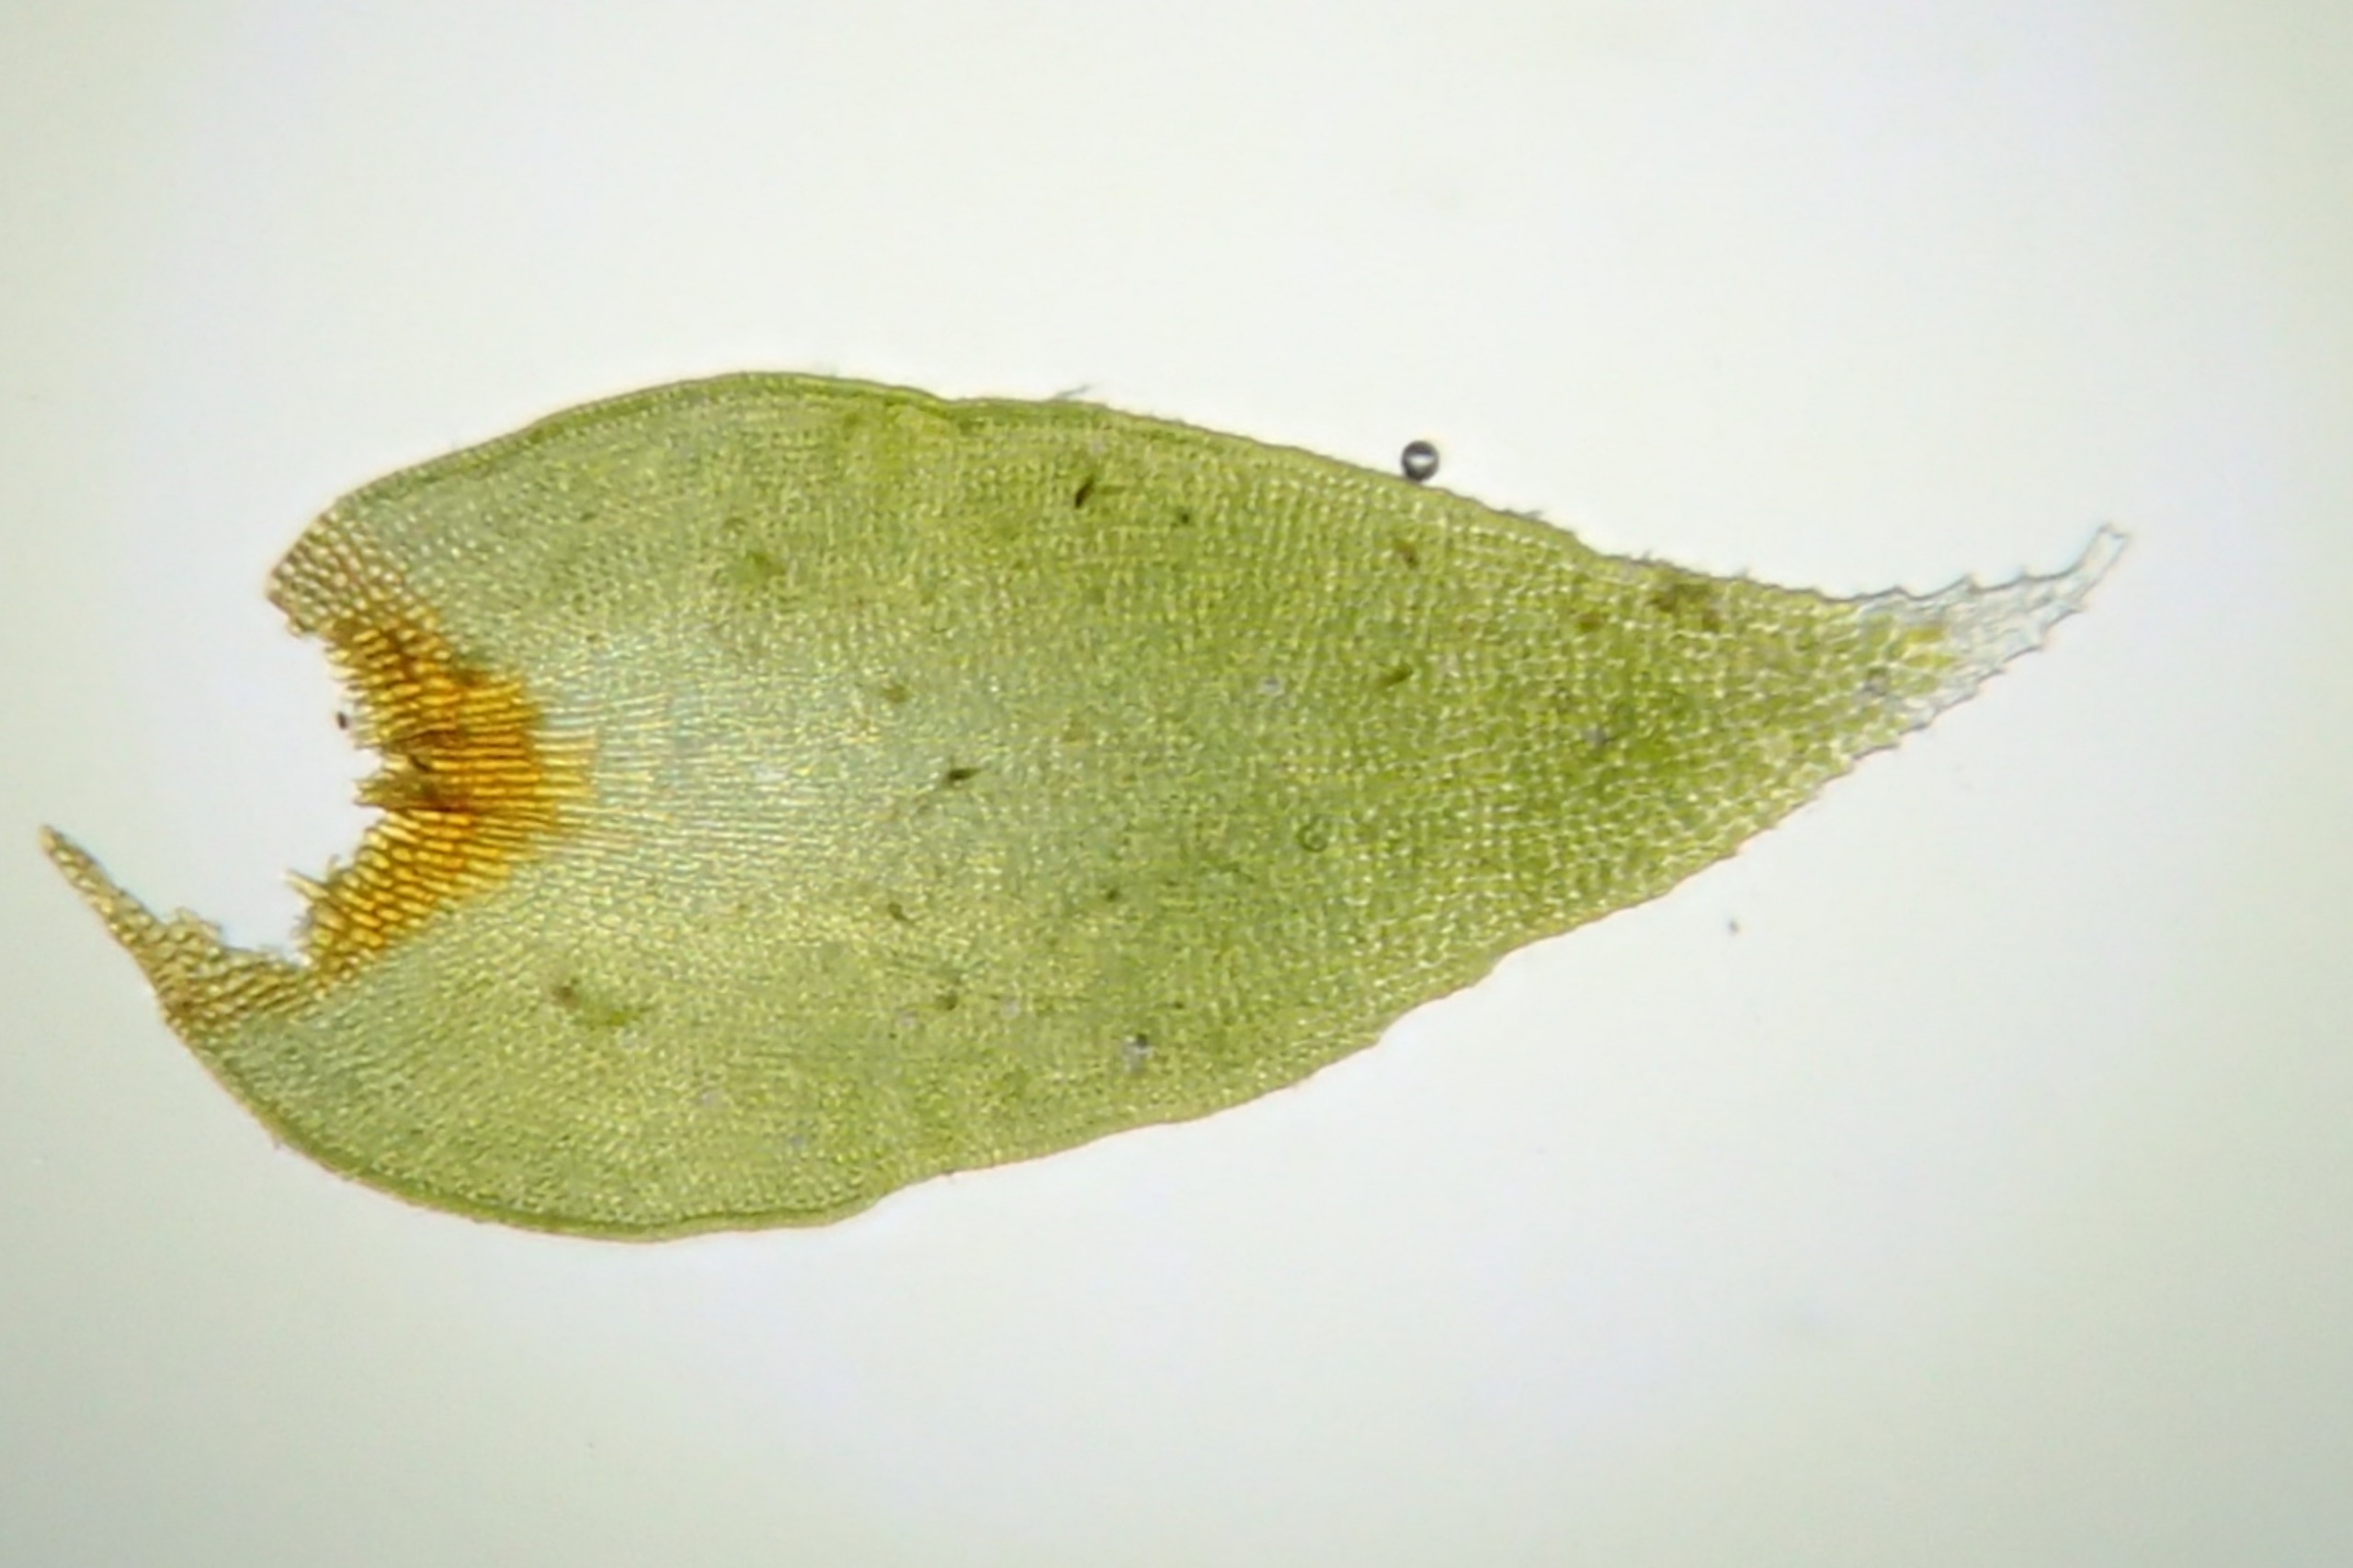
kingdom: Plantae
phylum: Bryophyta
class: Bryopsida
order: Hedwigiales
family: Hedwigiaceae
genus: Hedwigia
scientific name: Hedwigia ciliata
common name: Hvidspidset hedwigia
